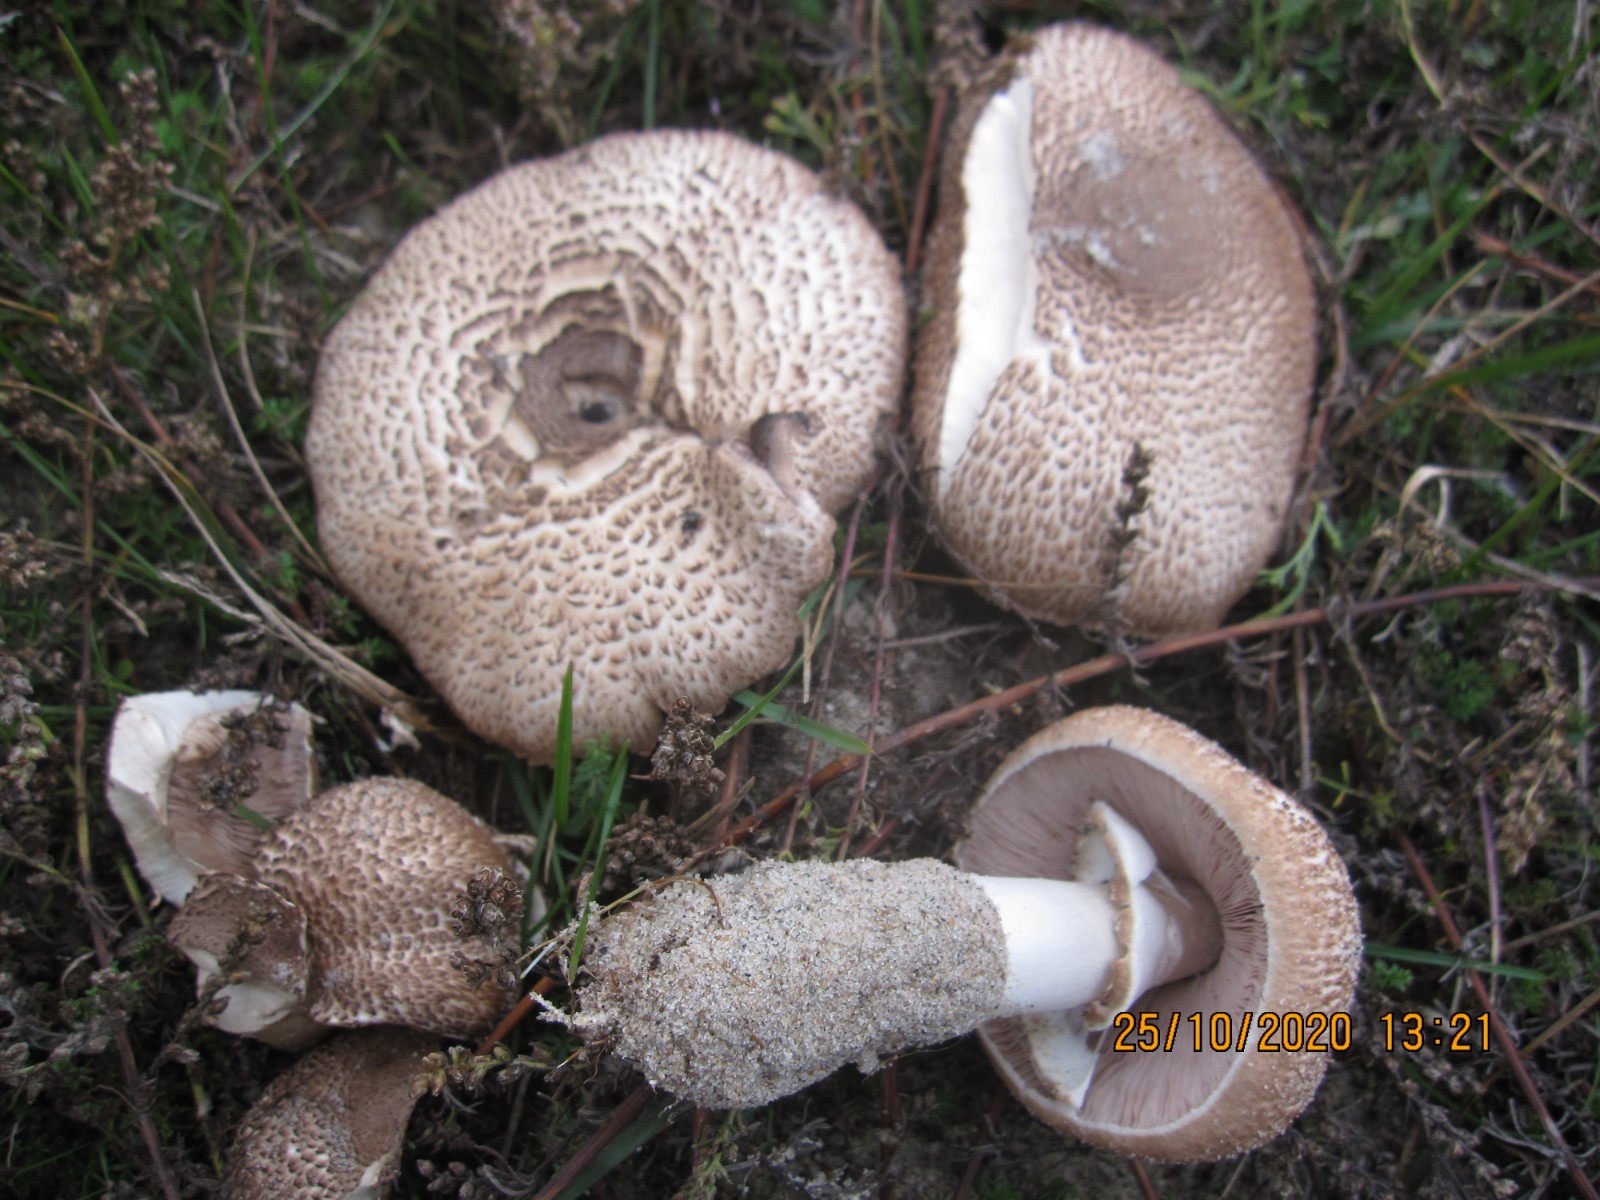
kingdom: Fungi
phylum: Basidiomycota
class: Agaricomycetes
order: Agaricales
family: Agaricaceae
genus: Agaricus
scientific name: Agaricus impudicus
